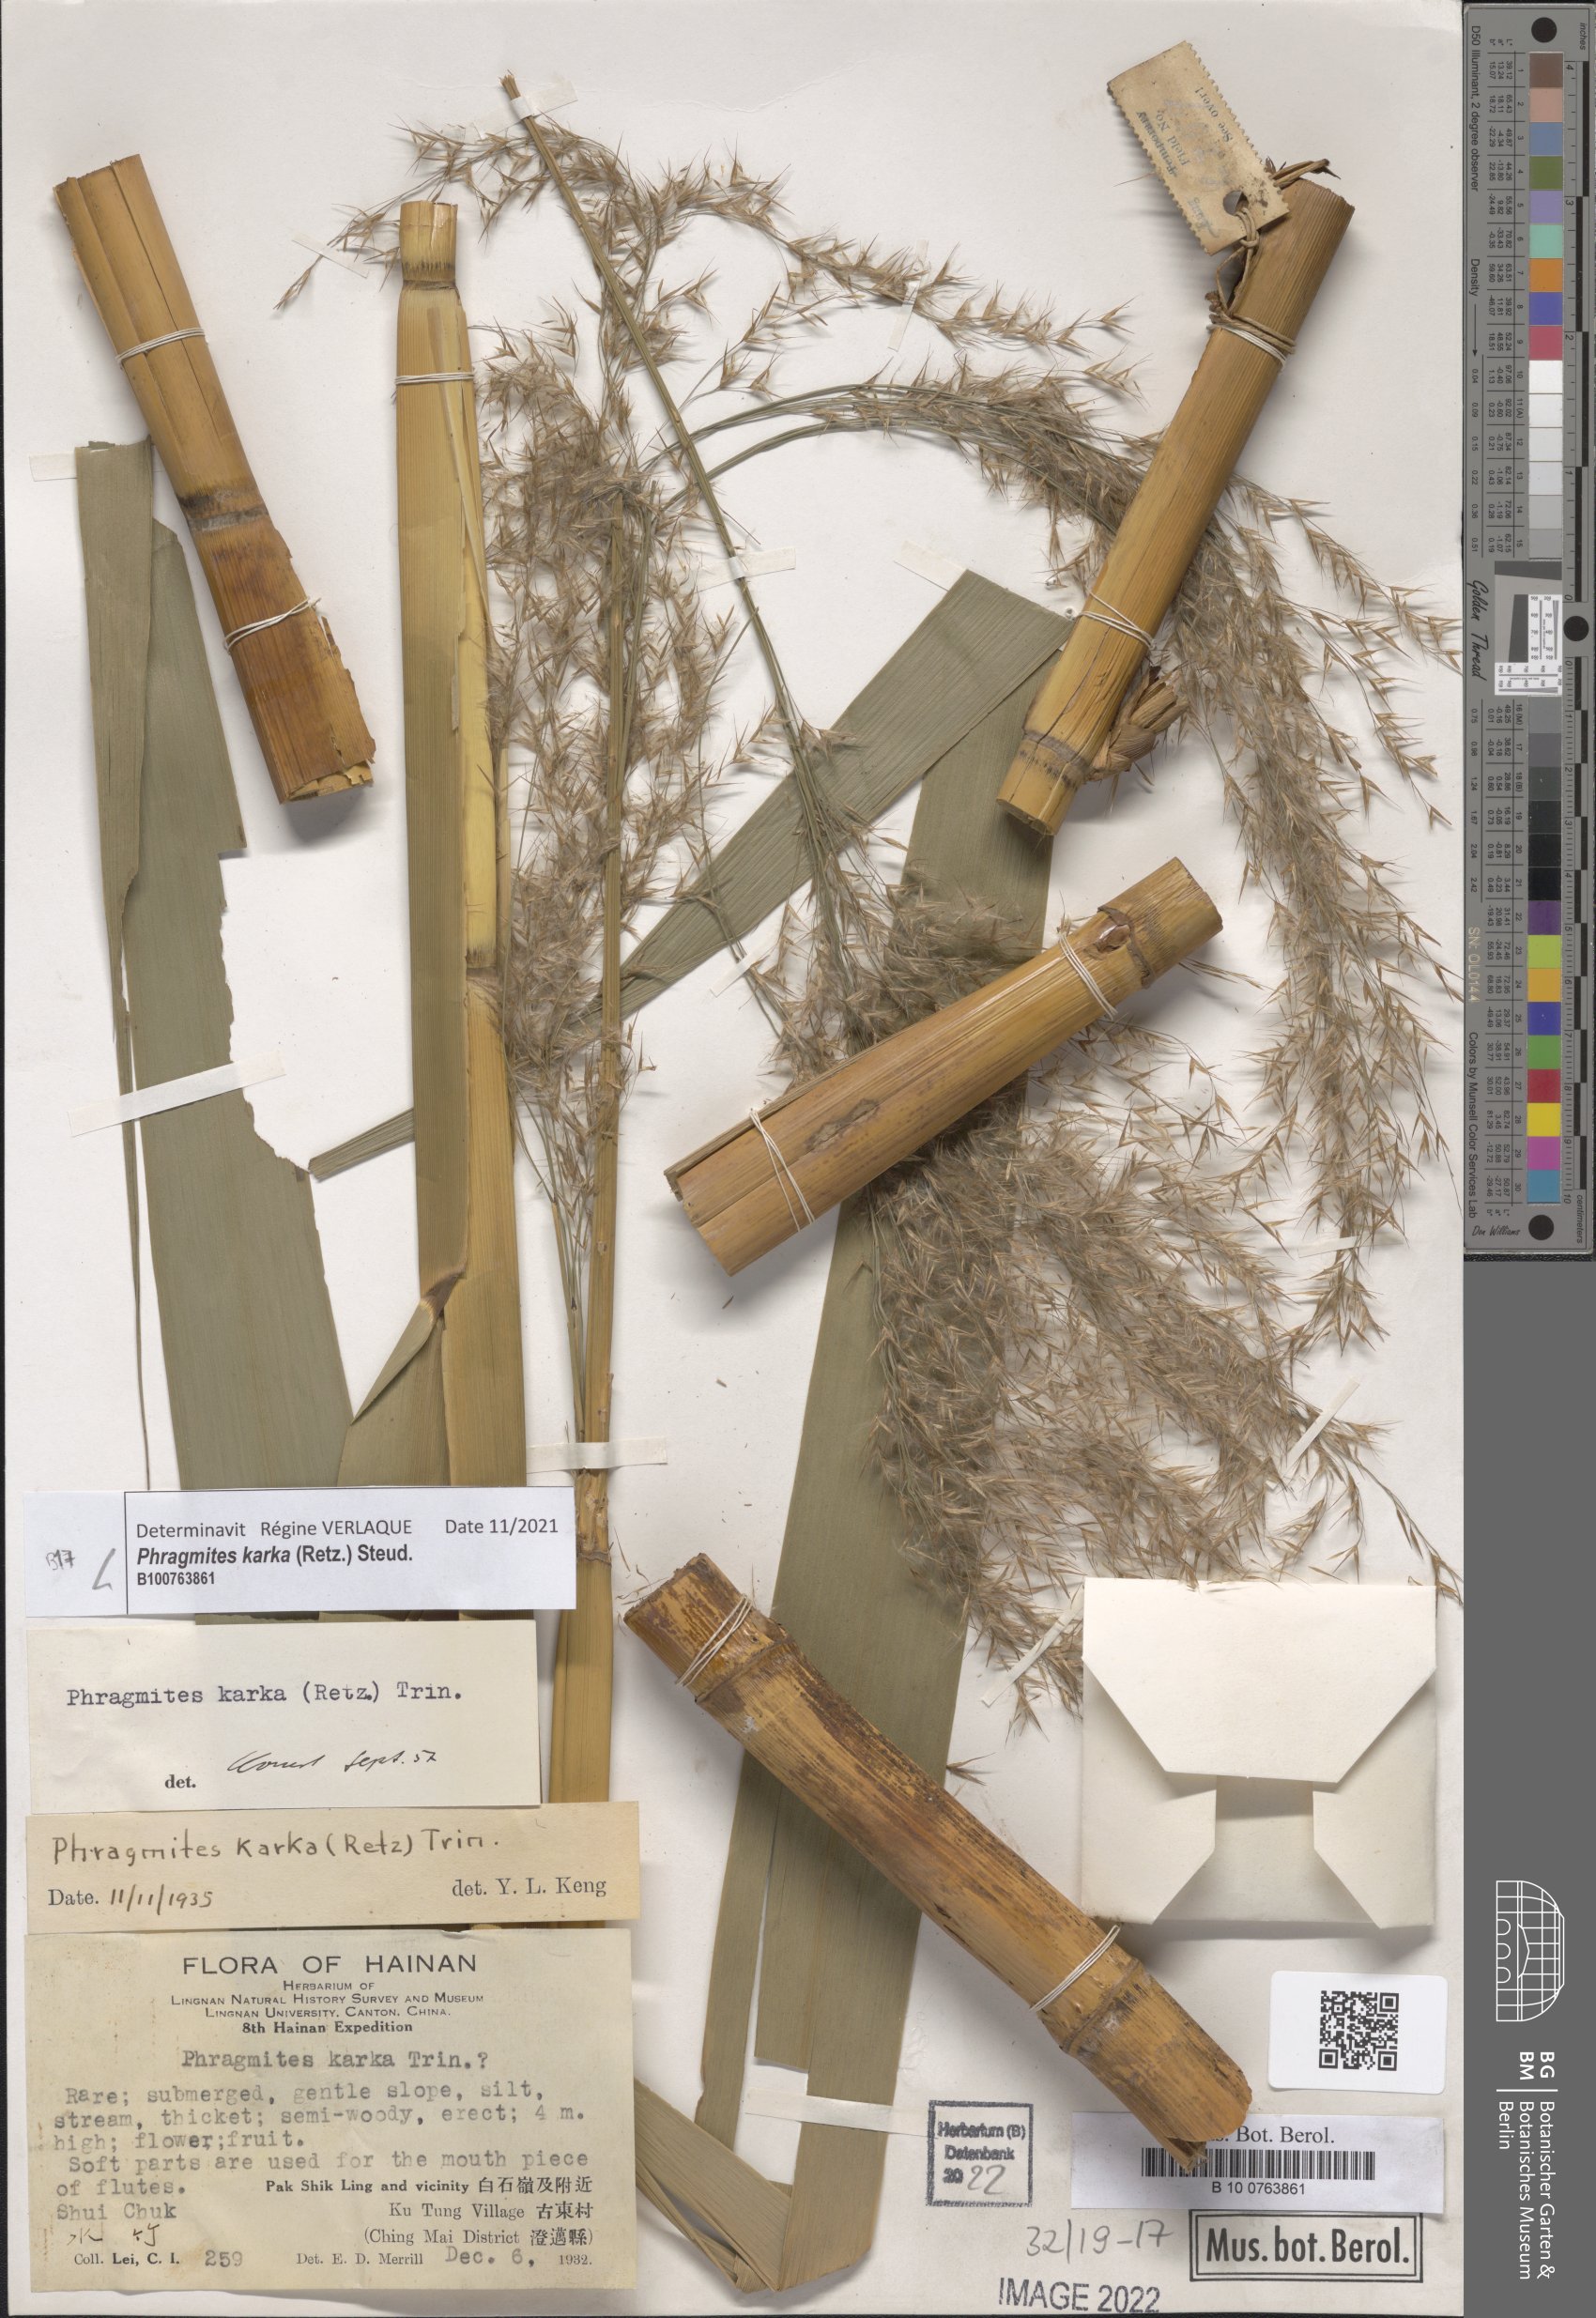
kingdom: Plantae
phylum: Tracheophyta
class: Liliopsida
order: Poales
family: Poaceae
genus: Phragmites
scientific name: Phragmites karka
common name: Tropical reed
